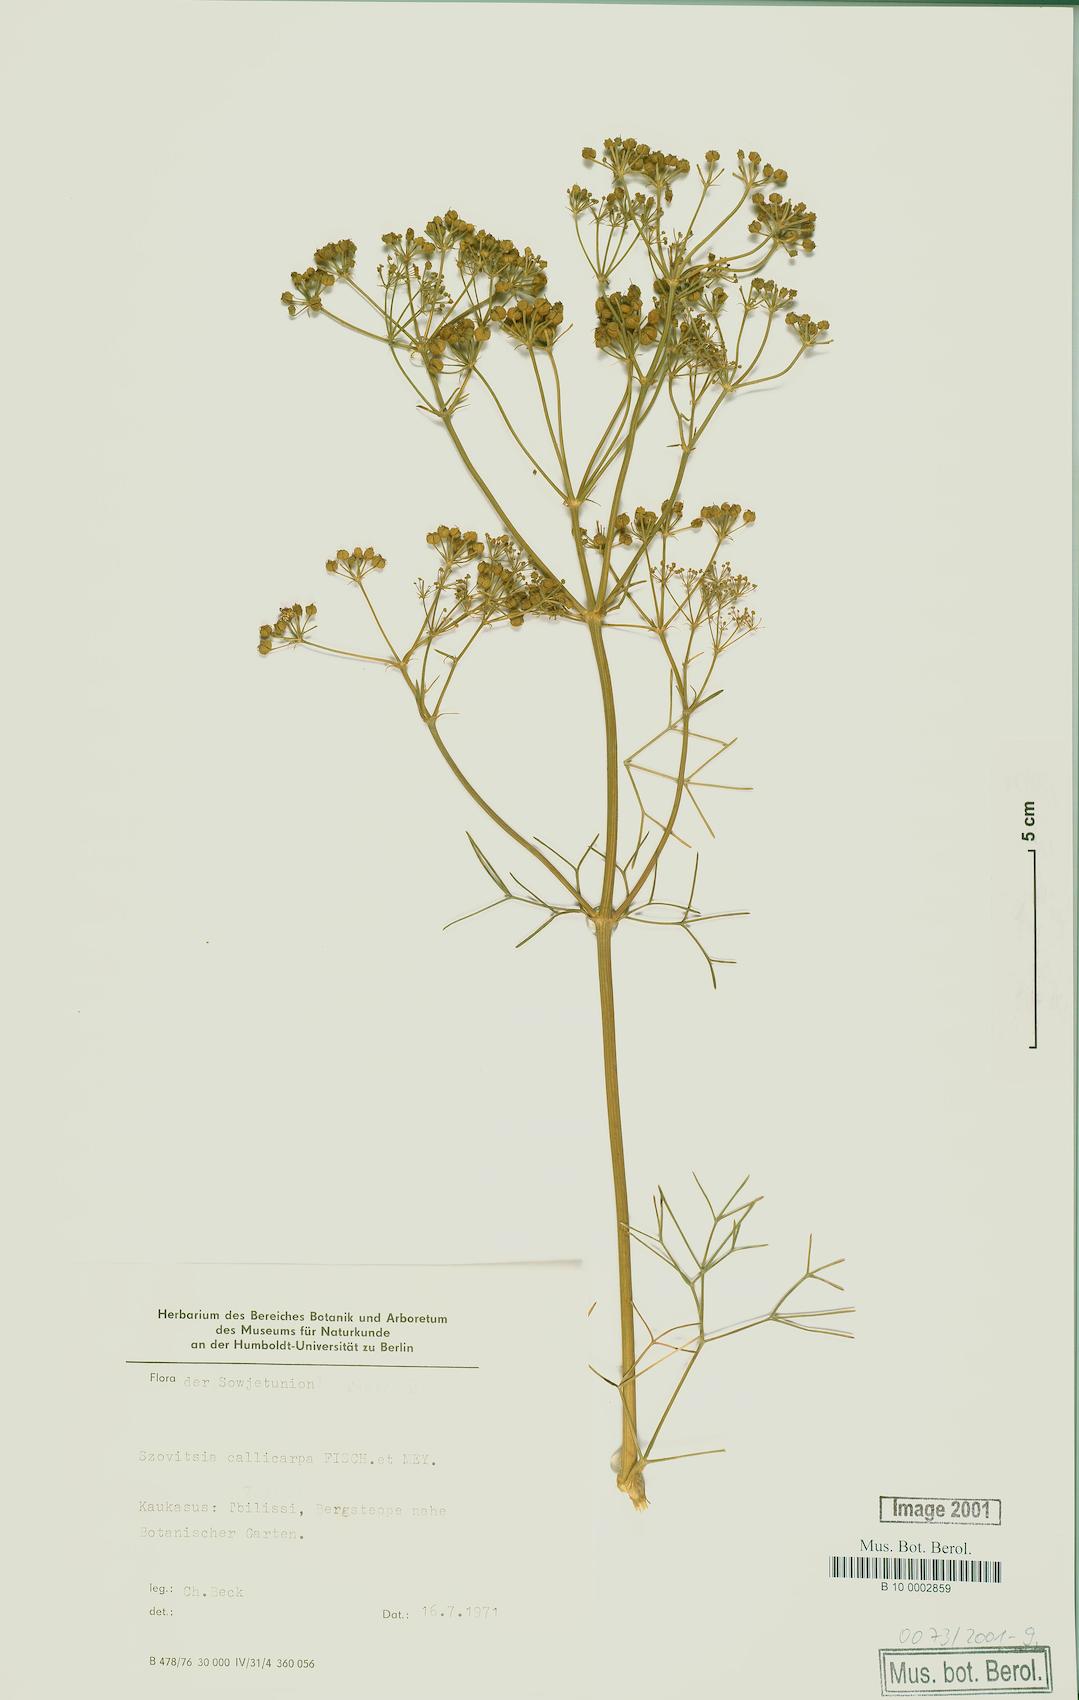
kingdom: Plantae
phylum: Tracheophyta
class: Magnoliopsida
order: Apiales
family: Apiaceae
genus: Szovitsia
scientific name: Szovitsia callicarpa
